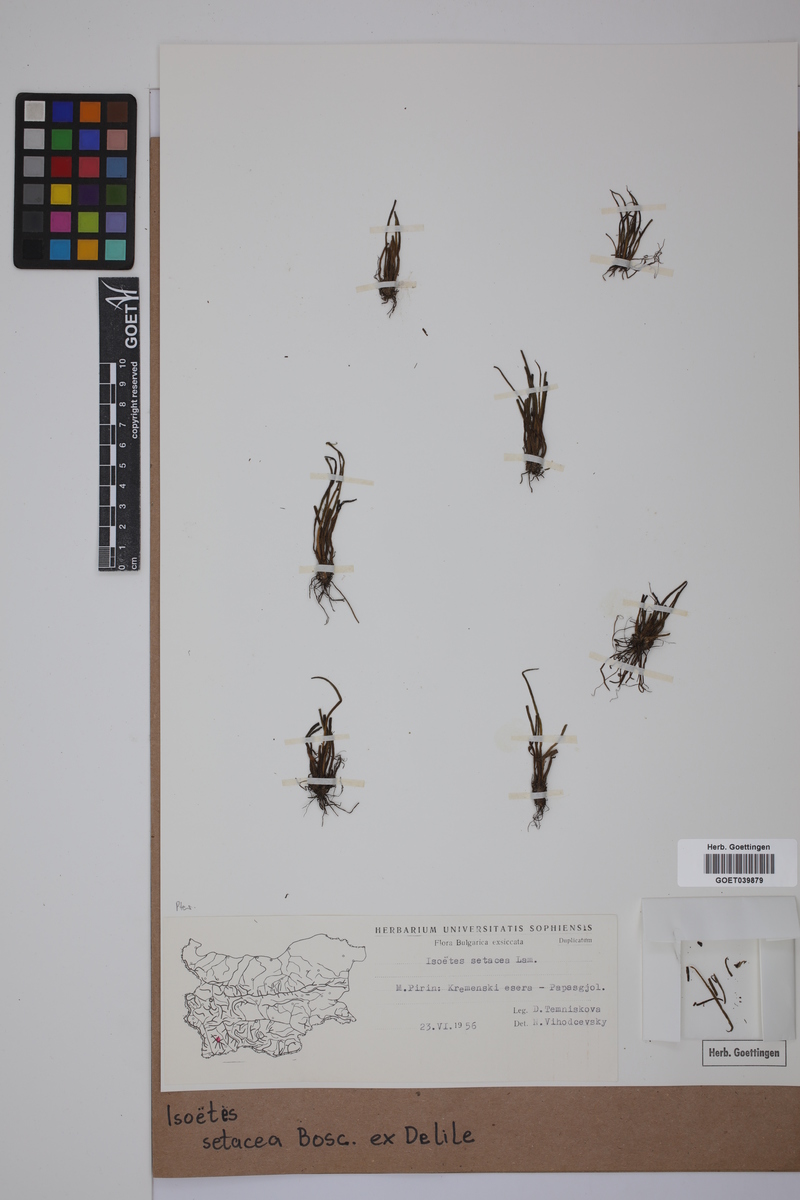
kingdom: Plantae
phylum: Tracheophyta
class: Lycopodiopsida
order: Isoetales
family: Isoetaceae
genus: Isoetes
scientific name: Isoetes longissima
